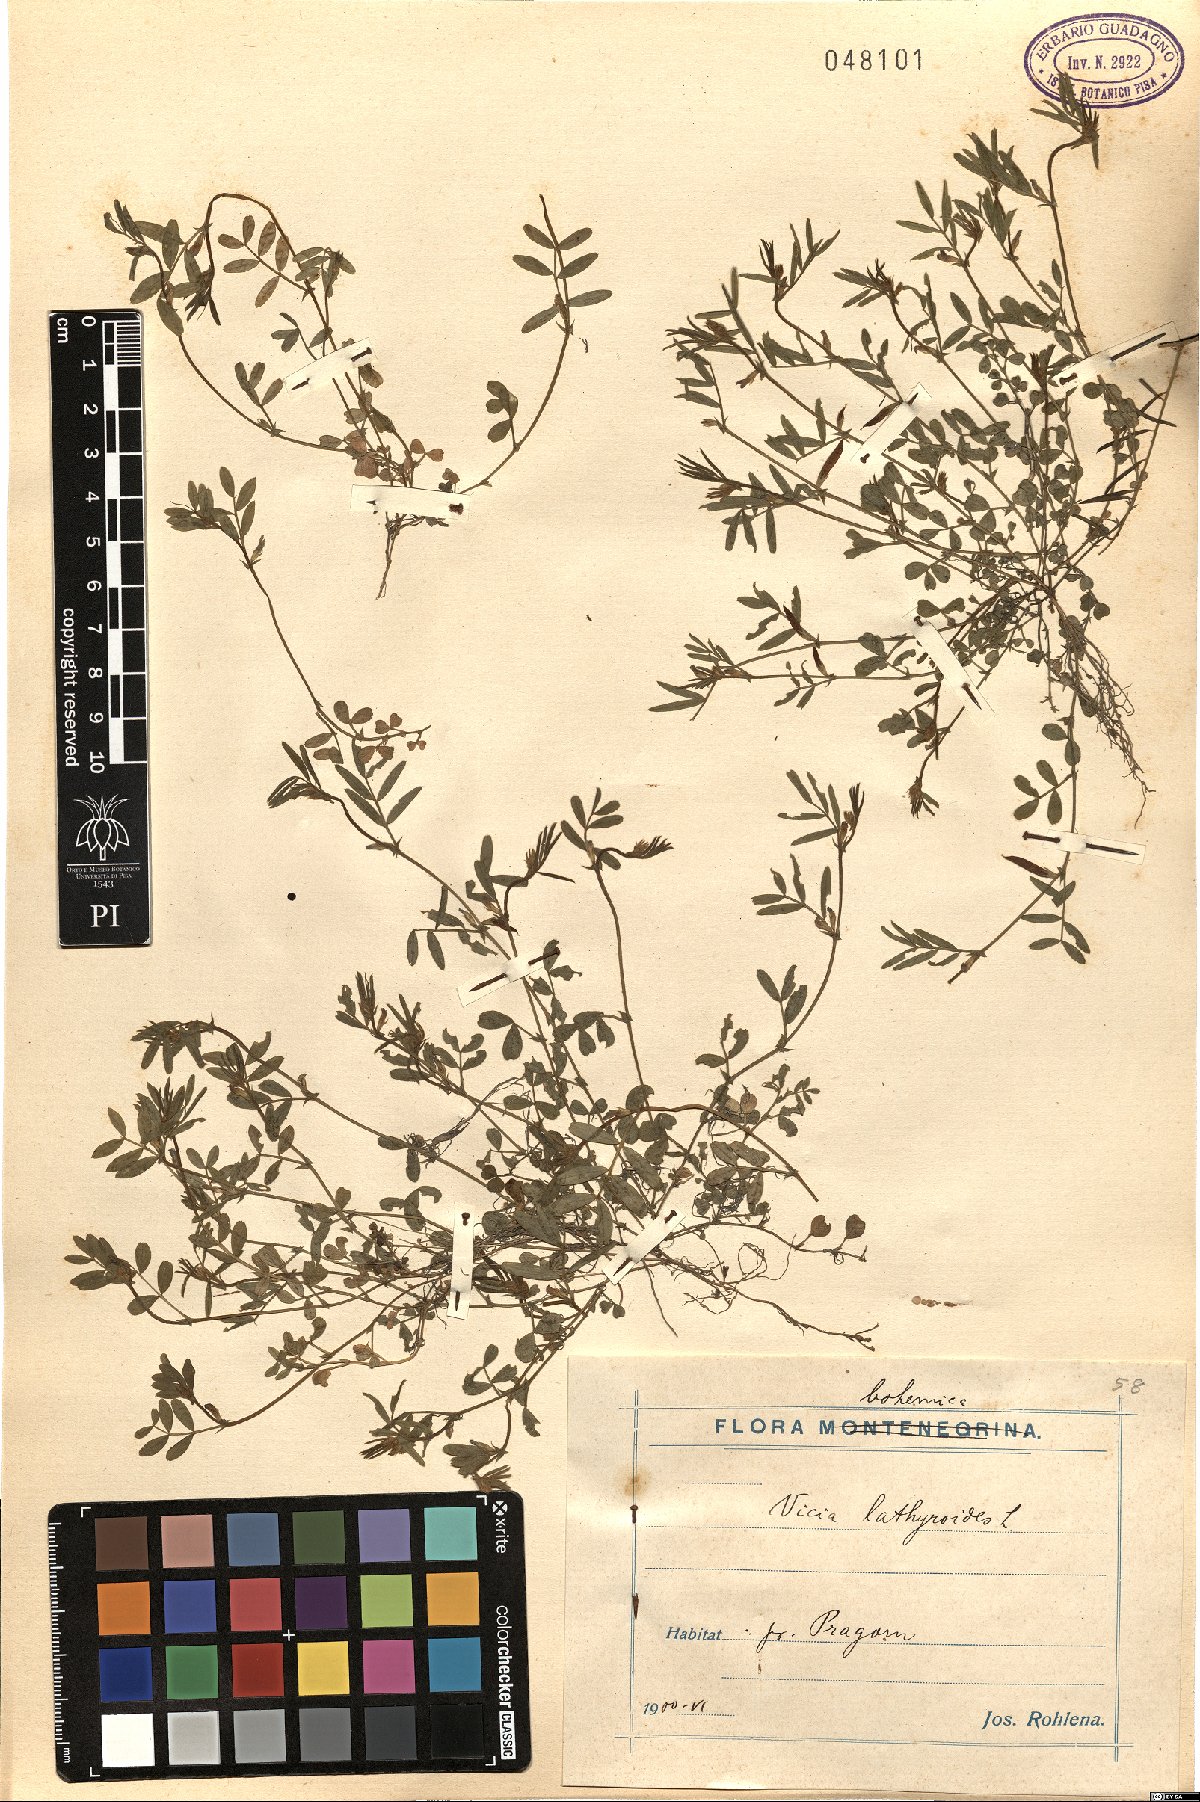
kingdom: Plantae
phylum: Tracheophyta
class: Magnoliopsida
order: Fabales
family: Fabaceae
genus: Vicia
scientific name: Vicia lathyroides
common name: Spring vetch
